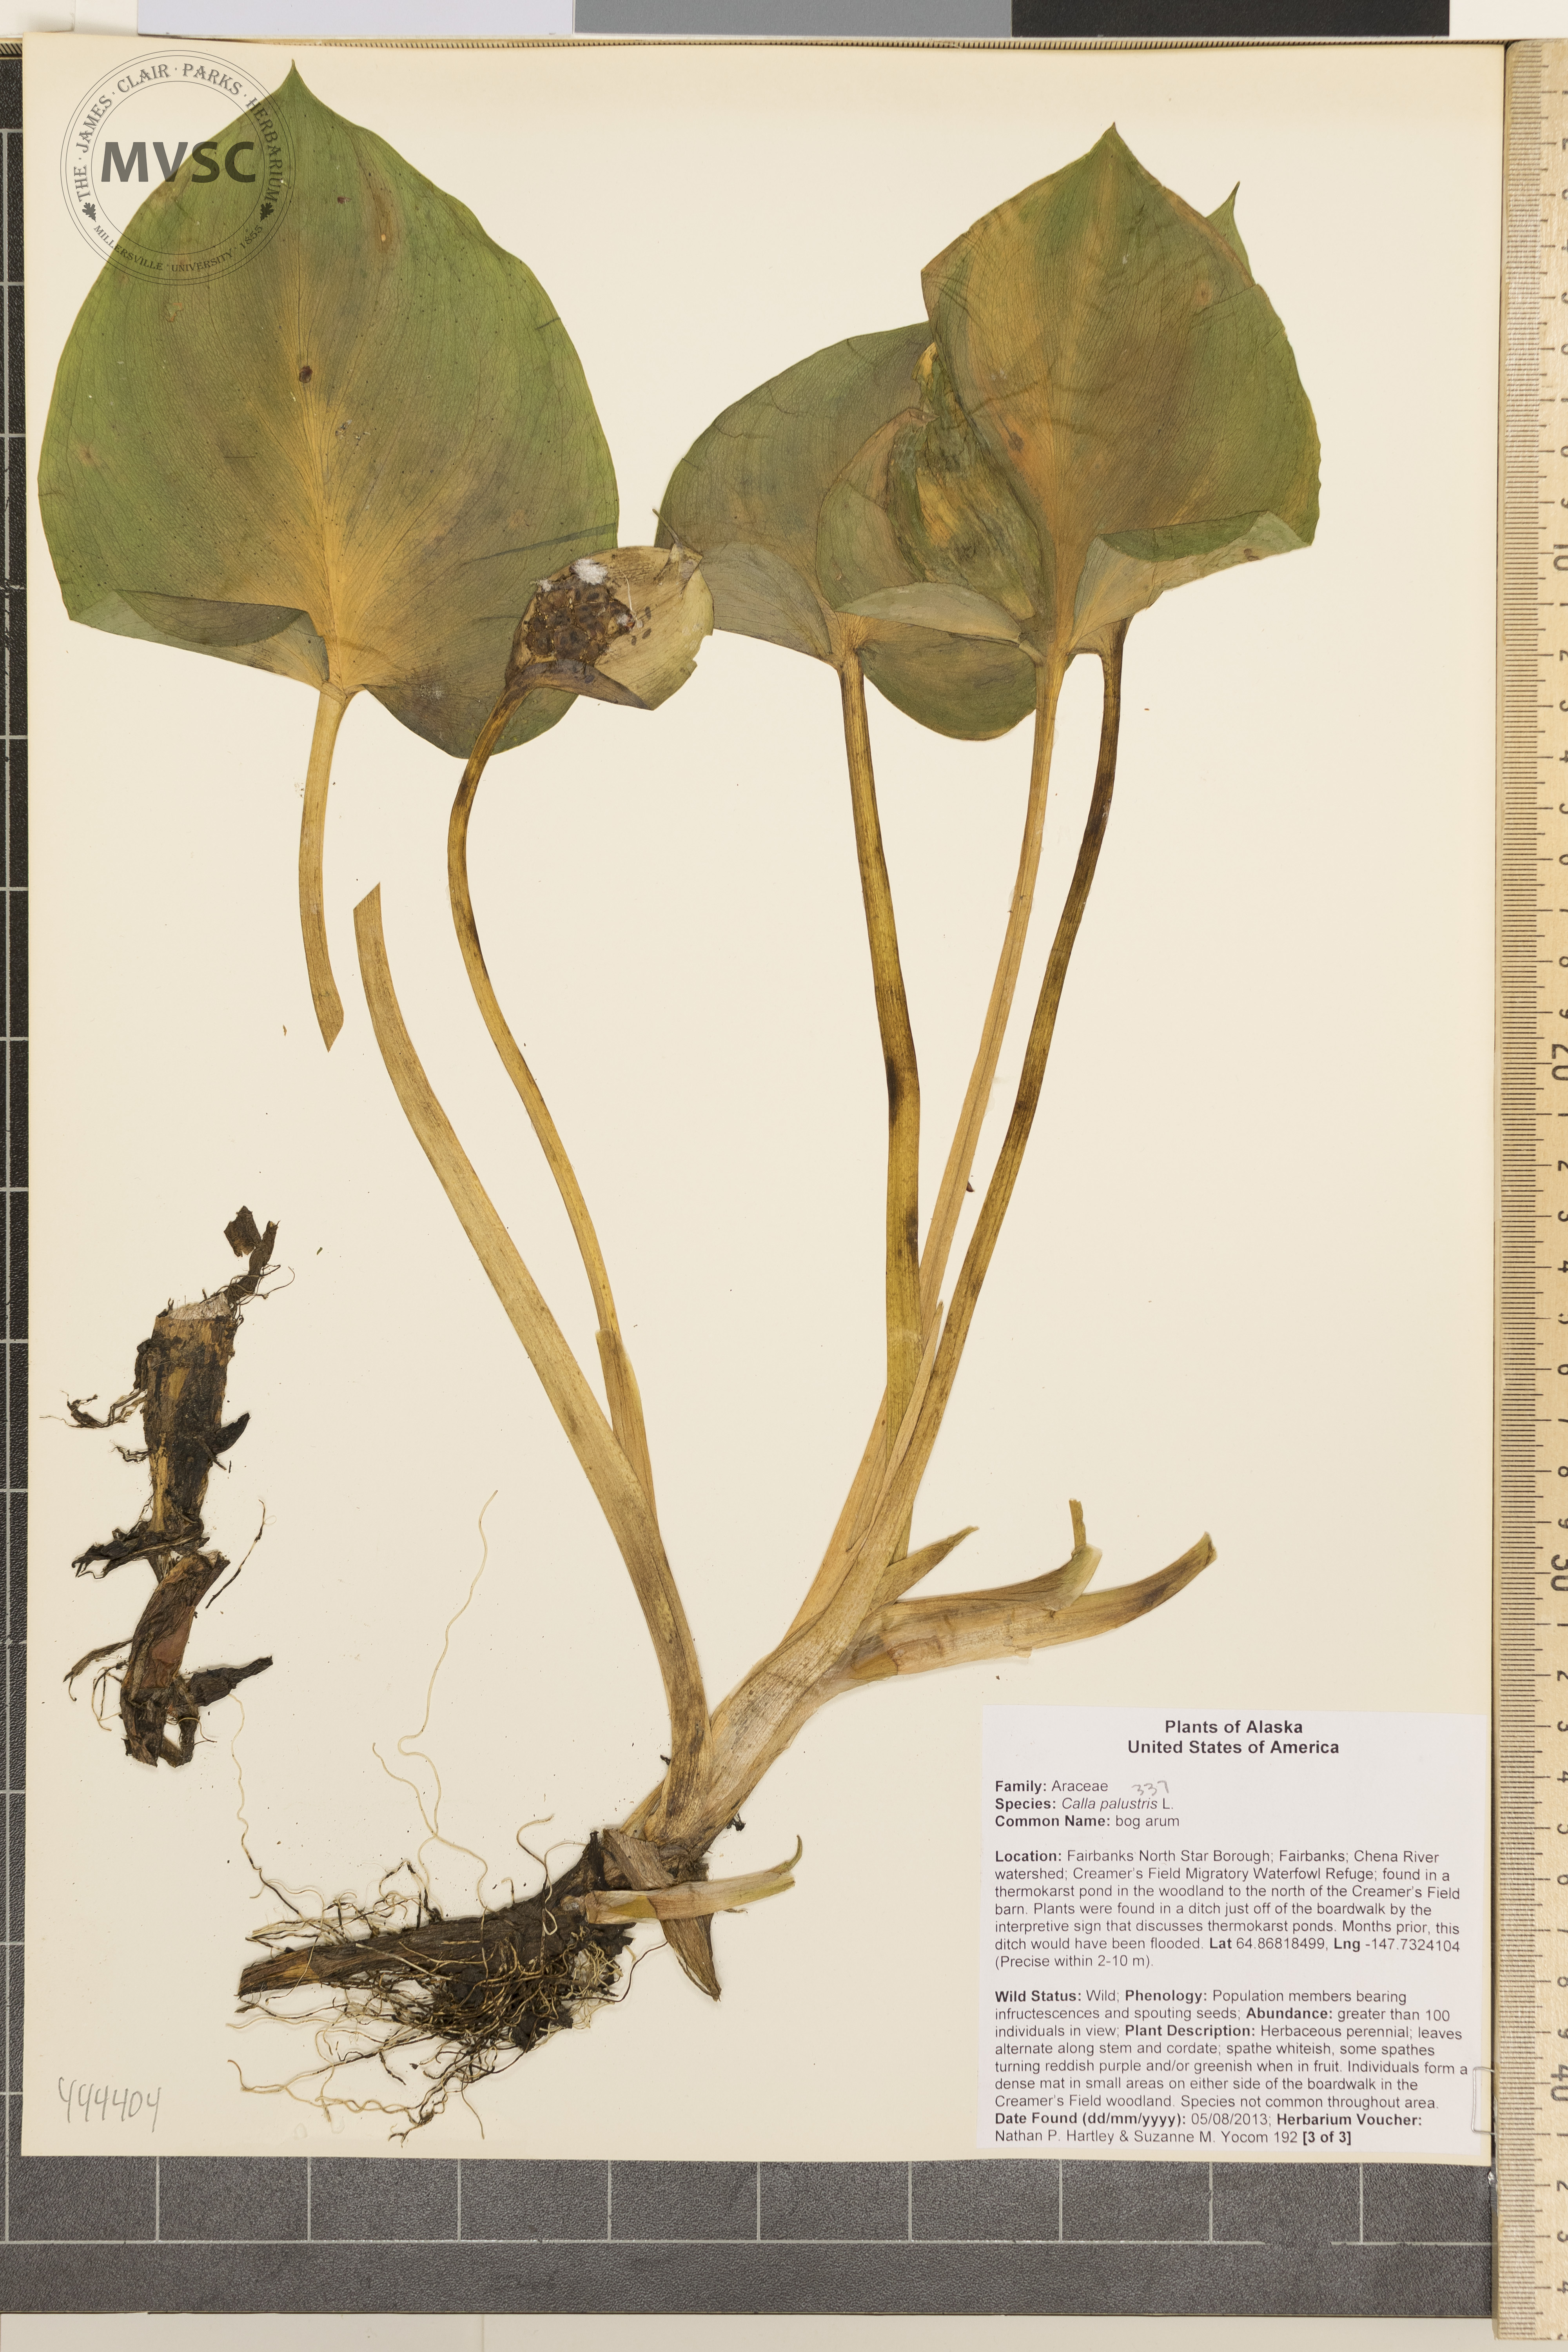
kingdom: Plantae
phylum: Tracheophyta
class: Liliopsida
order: Alismatales
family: Araceae
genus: Calla
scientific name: Calla palustris
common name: bog arum
